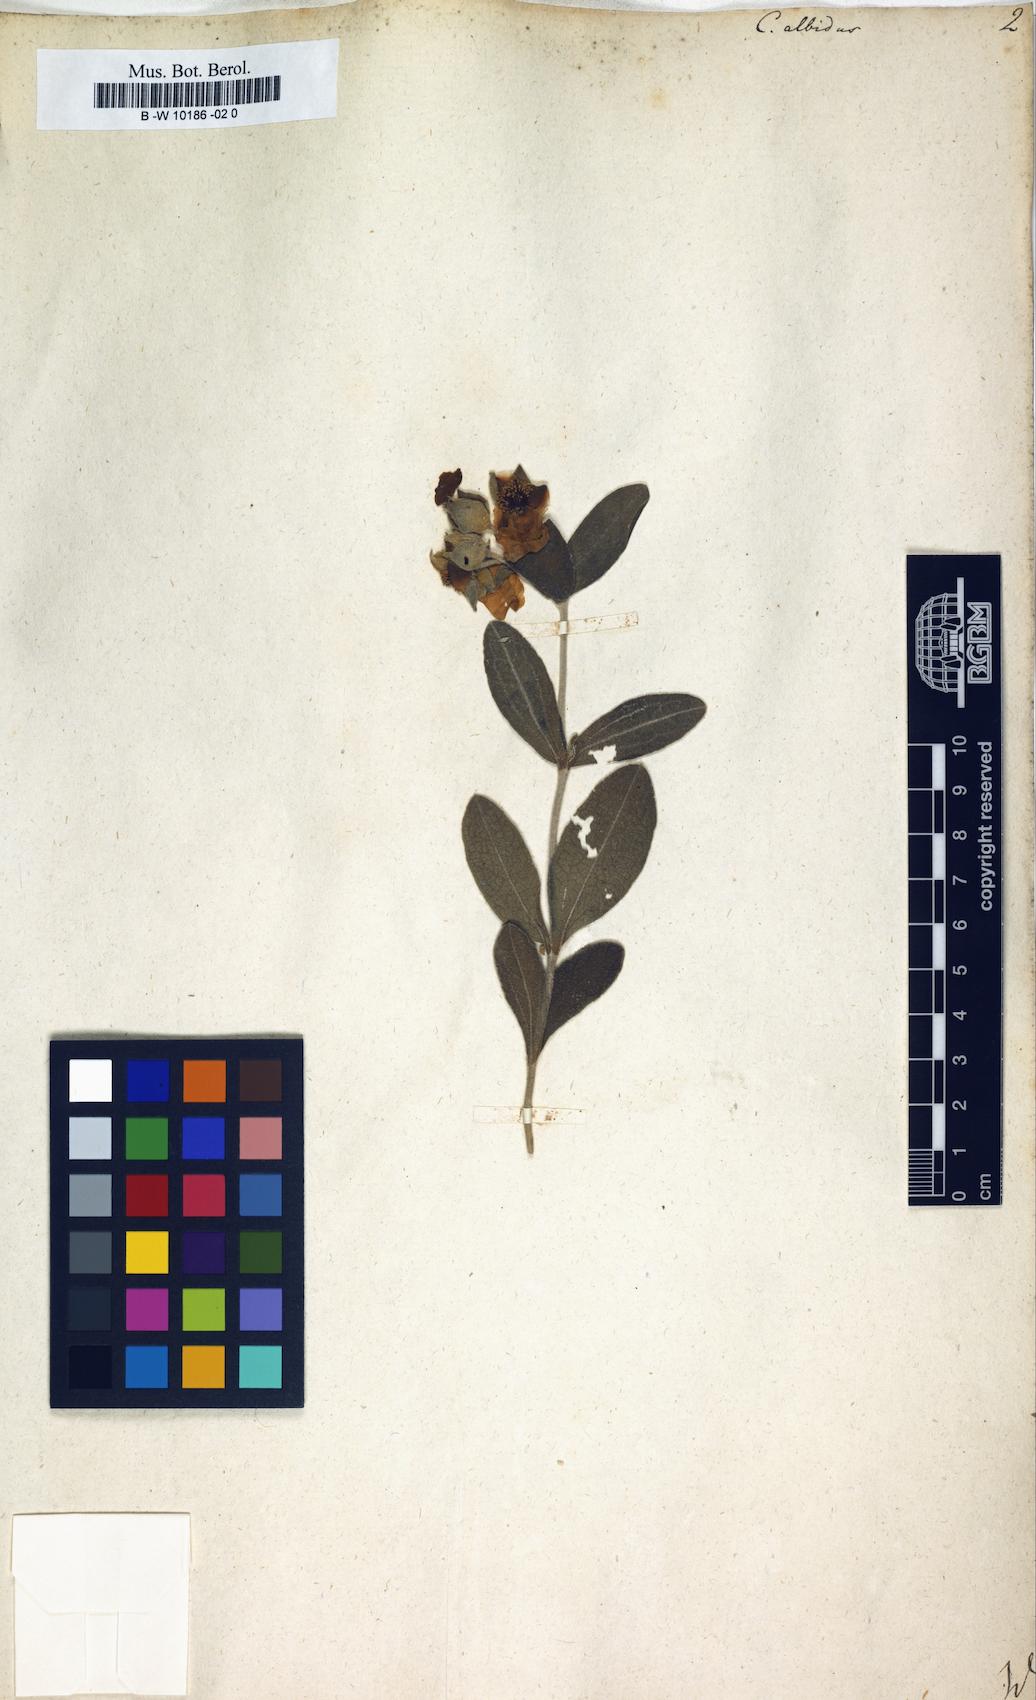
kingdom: Plantae
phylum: Tracheophyta
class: Magnoliopsida
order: Malvales
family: Cistaceae
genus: Cistus
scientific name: Cistus albidus
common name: White-leaf rock-rose
